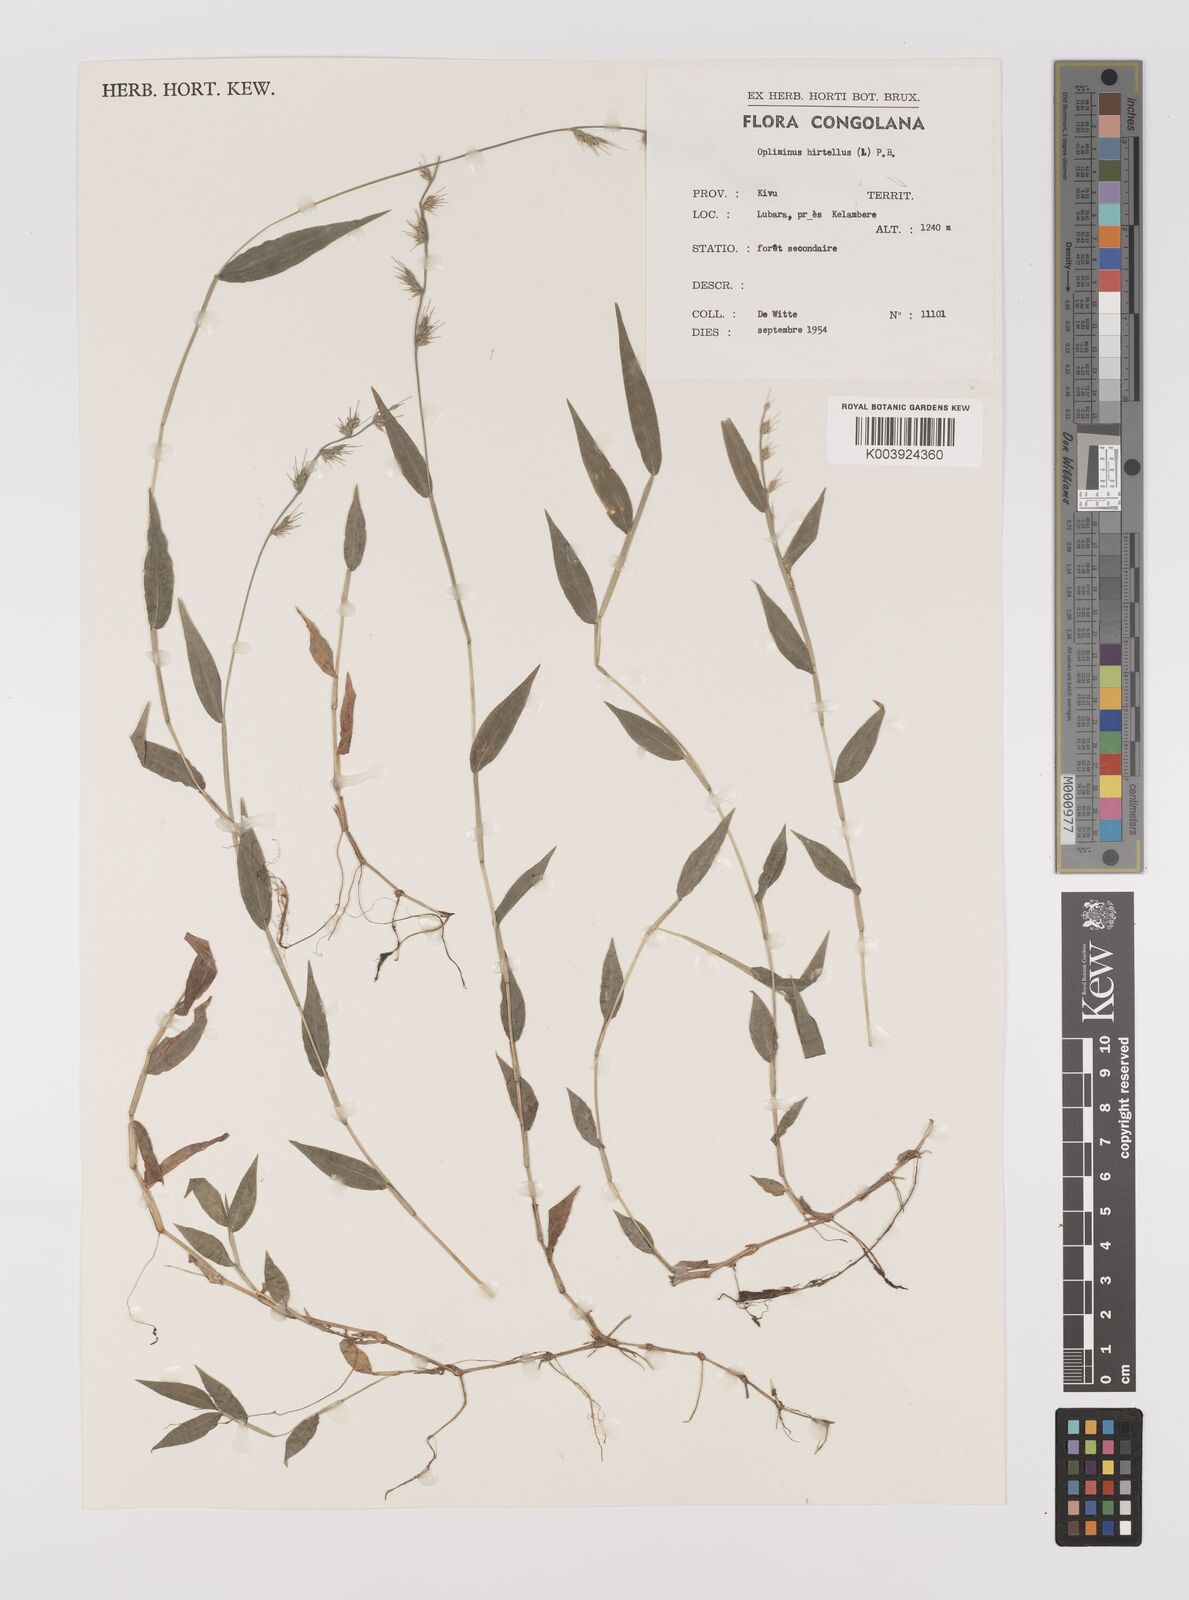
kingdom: Plantae
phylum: Tracheophyta
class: Liliopsida
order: Poales
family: Poaceae
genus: Oplismenus
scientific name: Oplismenus hirtellus
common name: Basketgrass
